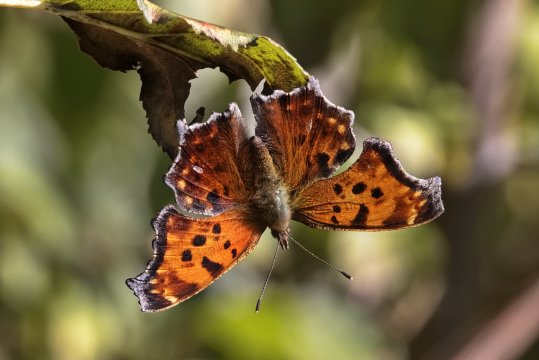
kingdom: Animalia
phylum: Arthropoda
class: Insecta
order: Lepidoptera
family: Nymphalidae
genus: Polygonia
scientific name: Polygonia comma
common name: Eastern Comma
